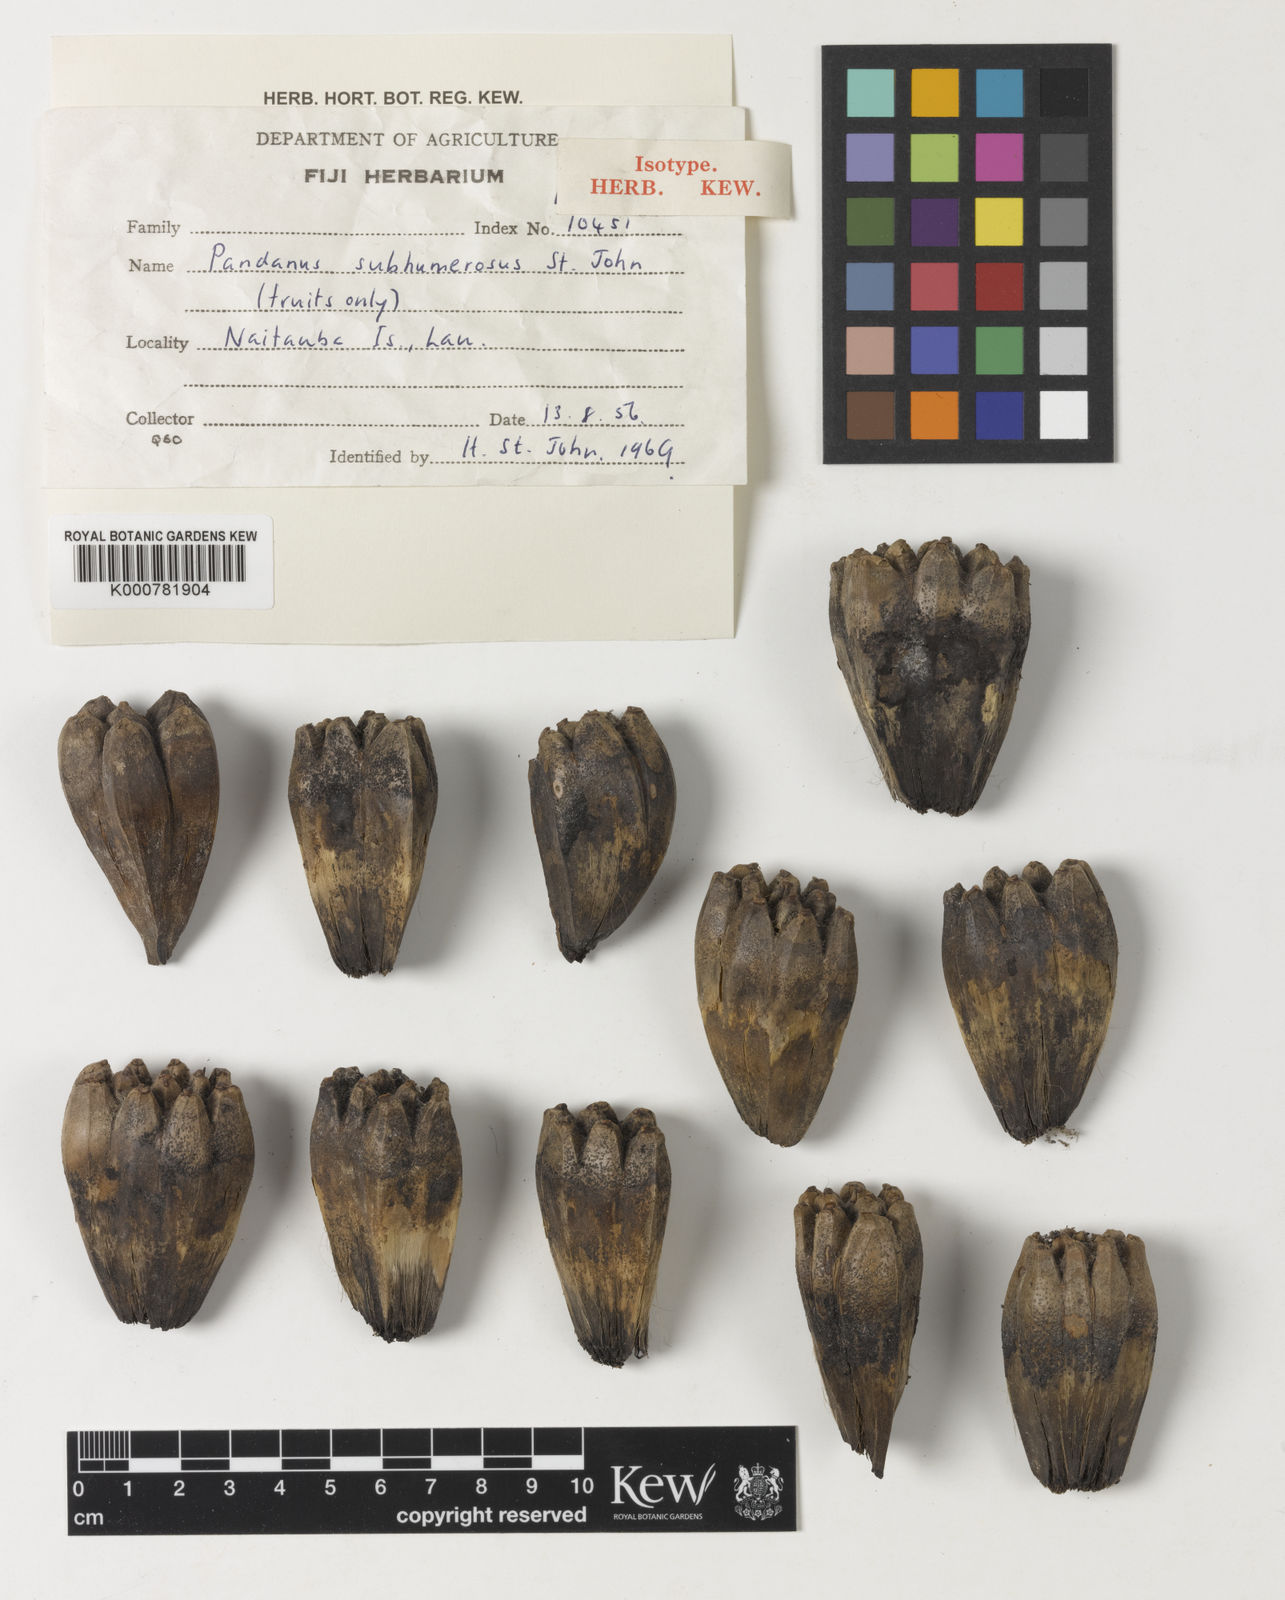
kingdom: Plantae
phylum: Tracheophyta
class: Liliopsida
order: Pandanales
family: Pandanaceae
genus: Pandanus
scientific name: Pandanus tectorius
